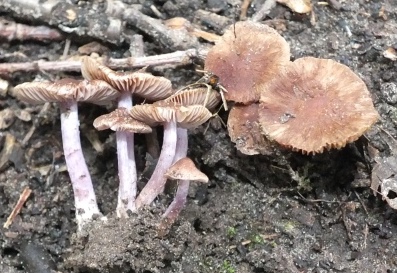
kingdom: Fungi
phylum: Basidiomycota
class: Agaricomycetes
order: Agaricales
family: Inocybaceae
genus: Inocybe
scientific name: Inocybe pusio
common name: violetfodet trævlhat
